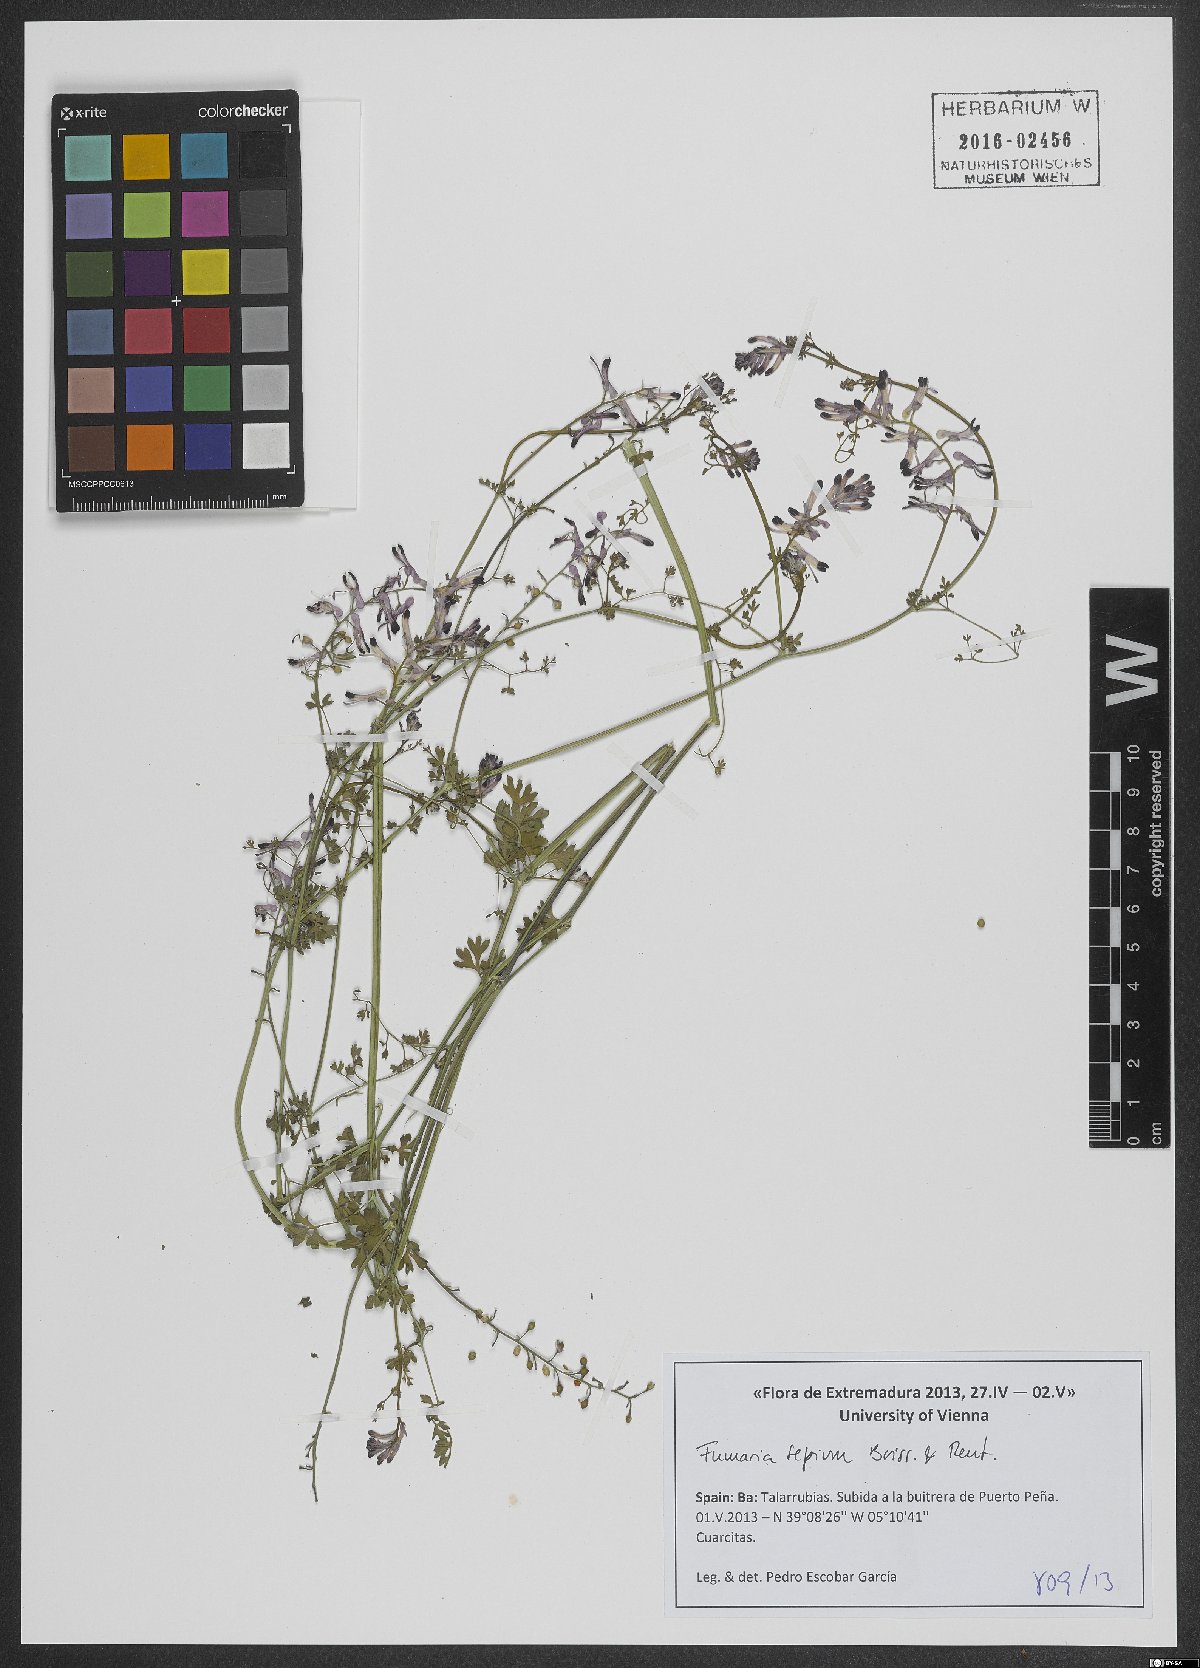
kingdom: Plantae
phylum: Tracheophyta
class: Magnoliopsida
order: Ranunculales
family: Papaveraceae
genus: Fumaria
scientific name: Fumaria sepium
